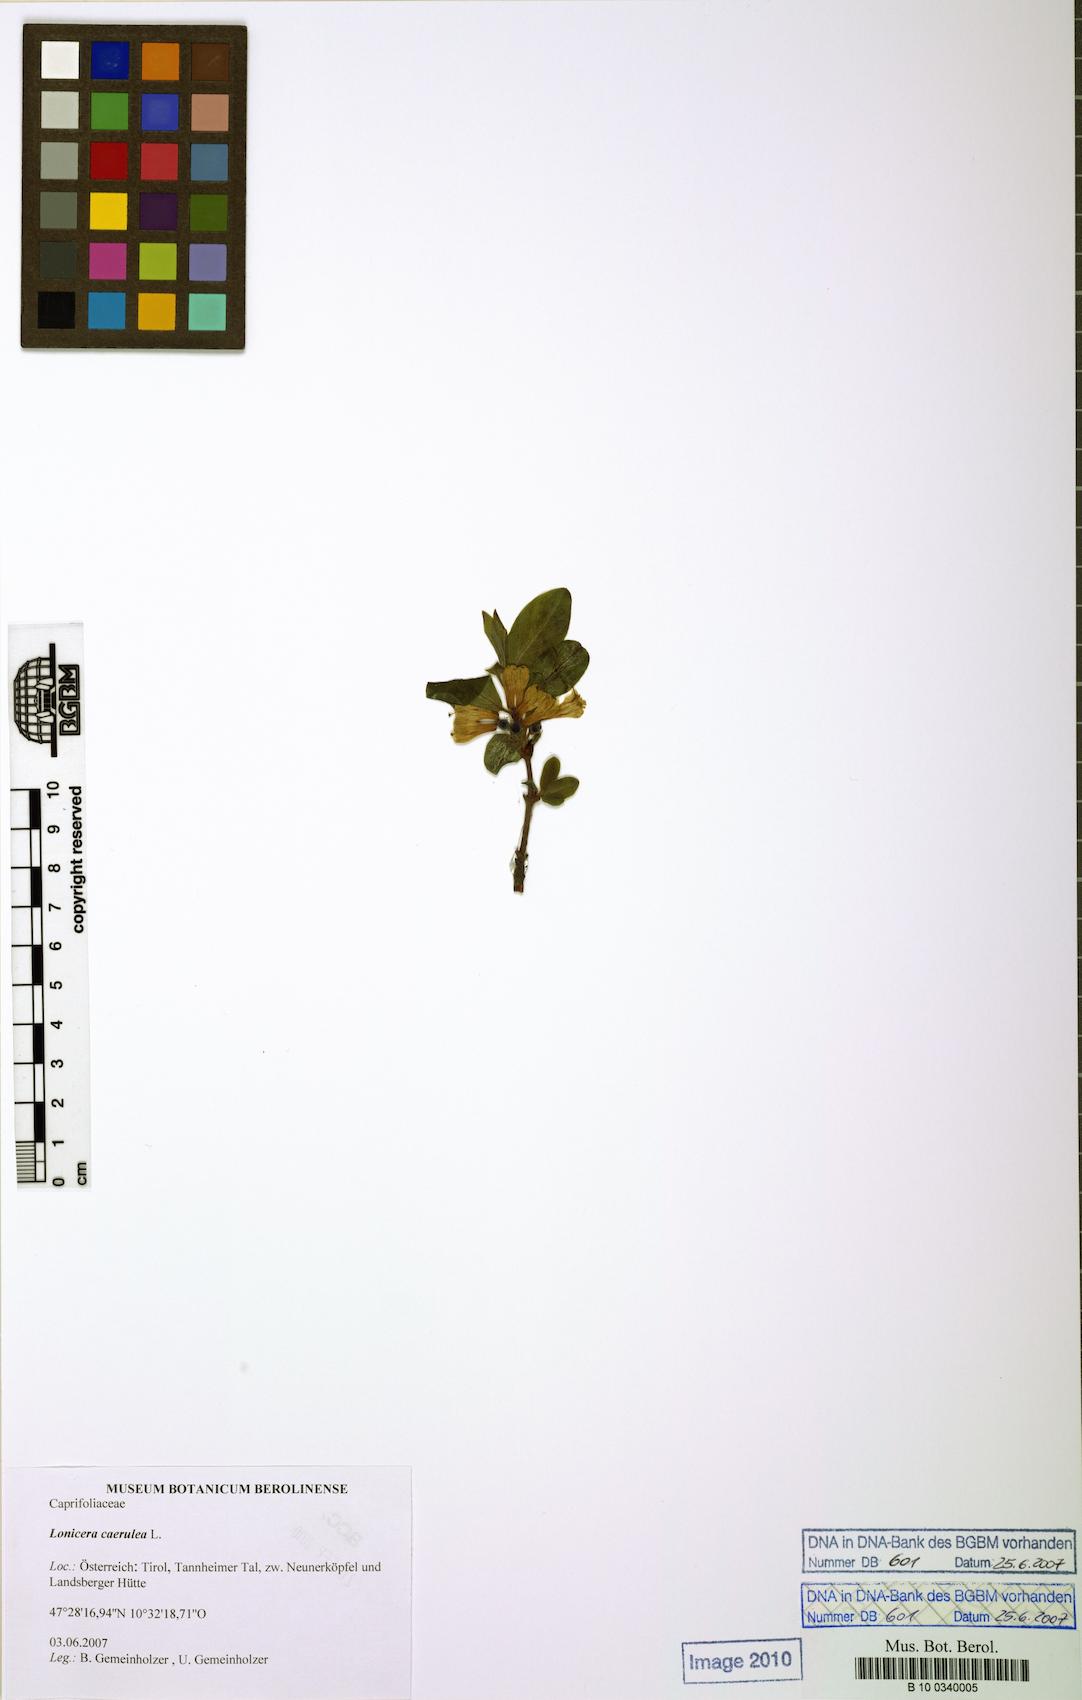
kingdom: Plantae
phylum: Tracheophyta
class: Magnoliopsida
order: Dipsacales
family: Caprifoliaceae
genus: Lonicera
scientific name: Lonicera caerulea
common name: Blue honeysuckle
